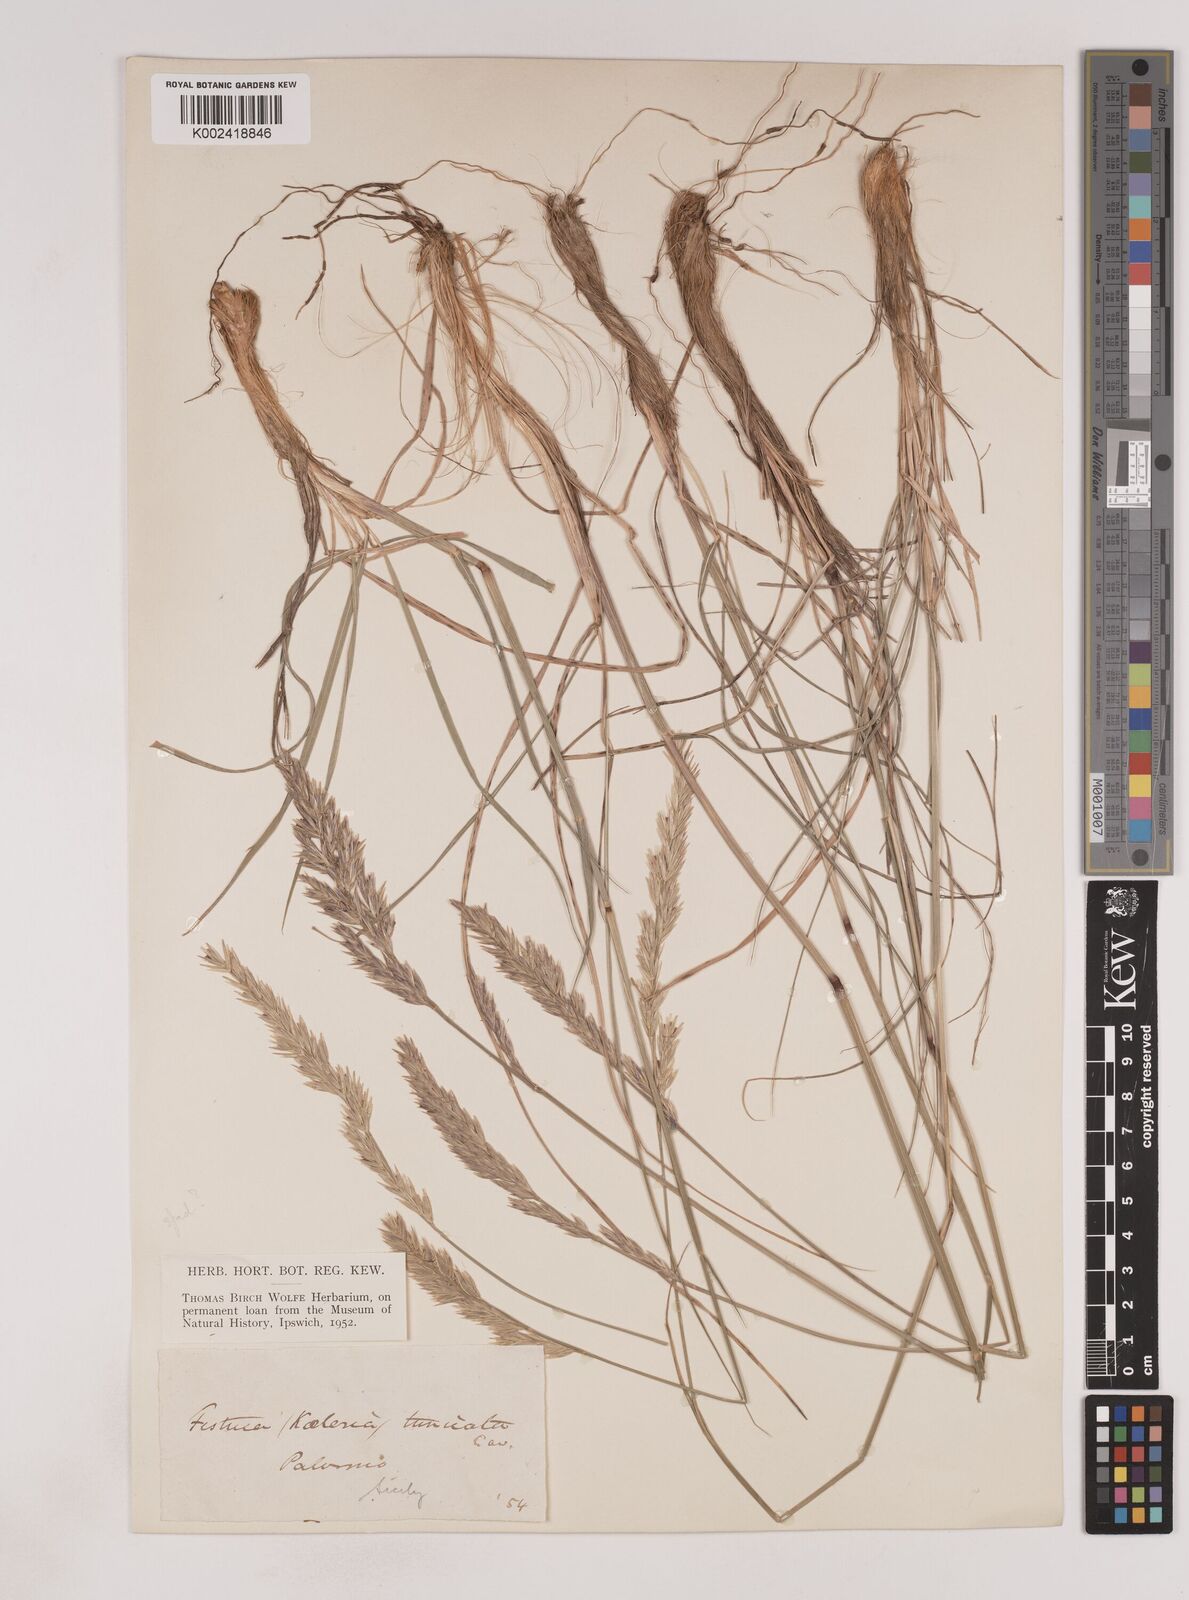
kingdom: Plantae
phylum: Tracheophyta
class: Liliopsida
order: Poales
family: Poaceae
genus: Patzkea
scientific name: Patzkea paniculata
